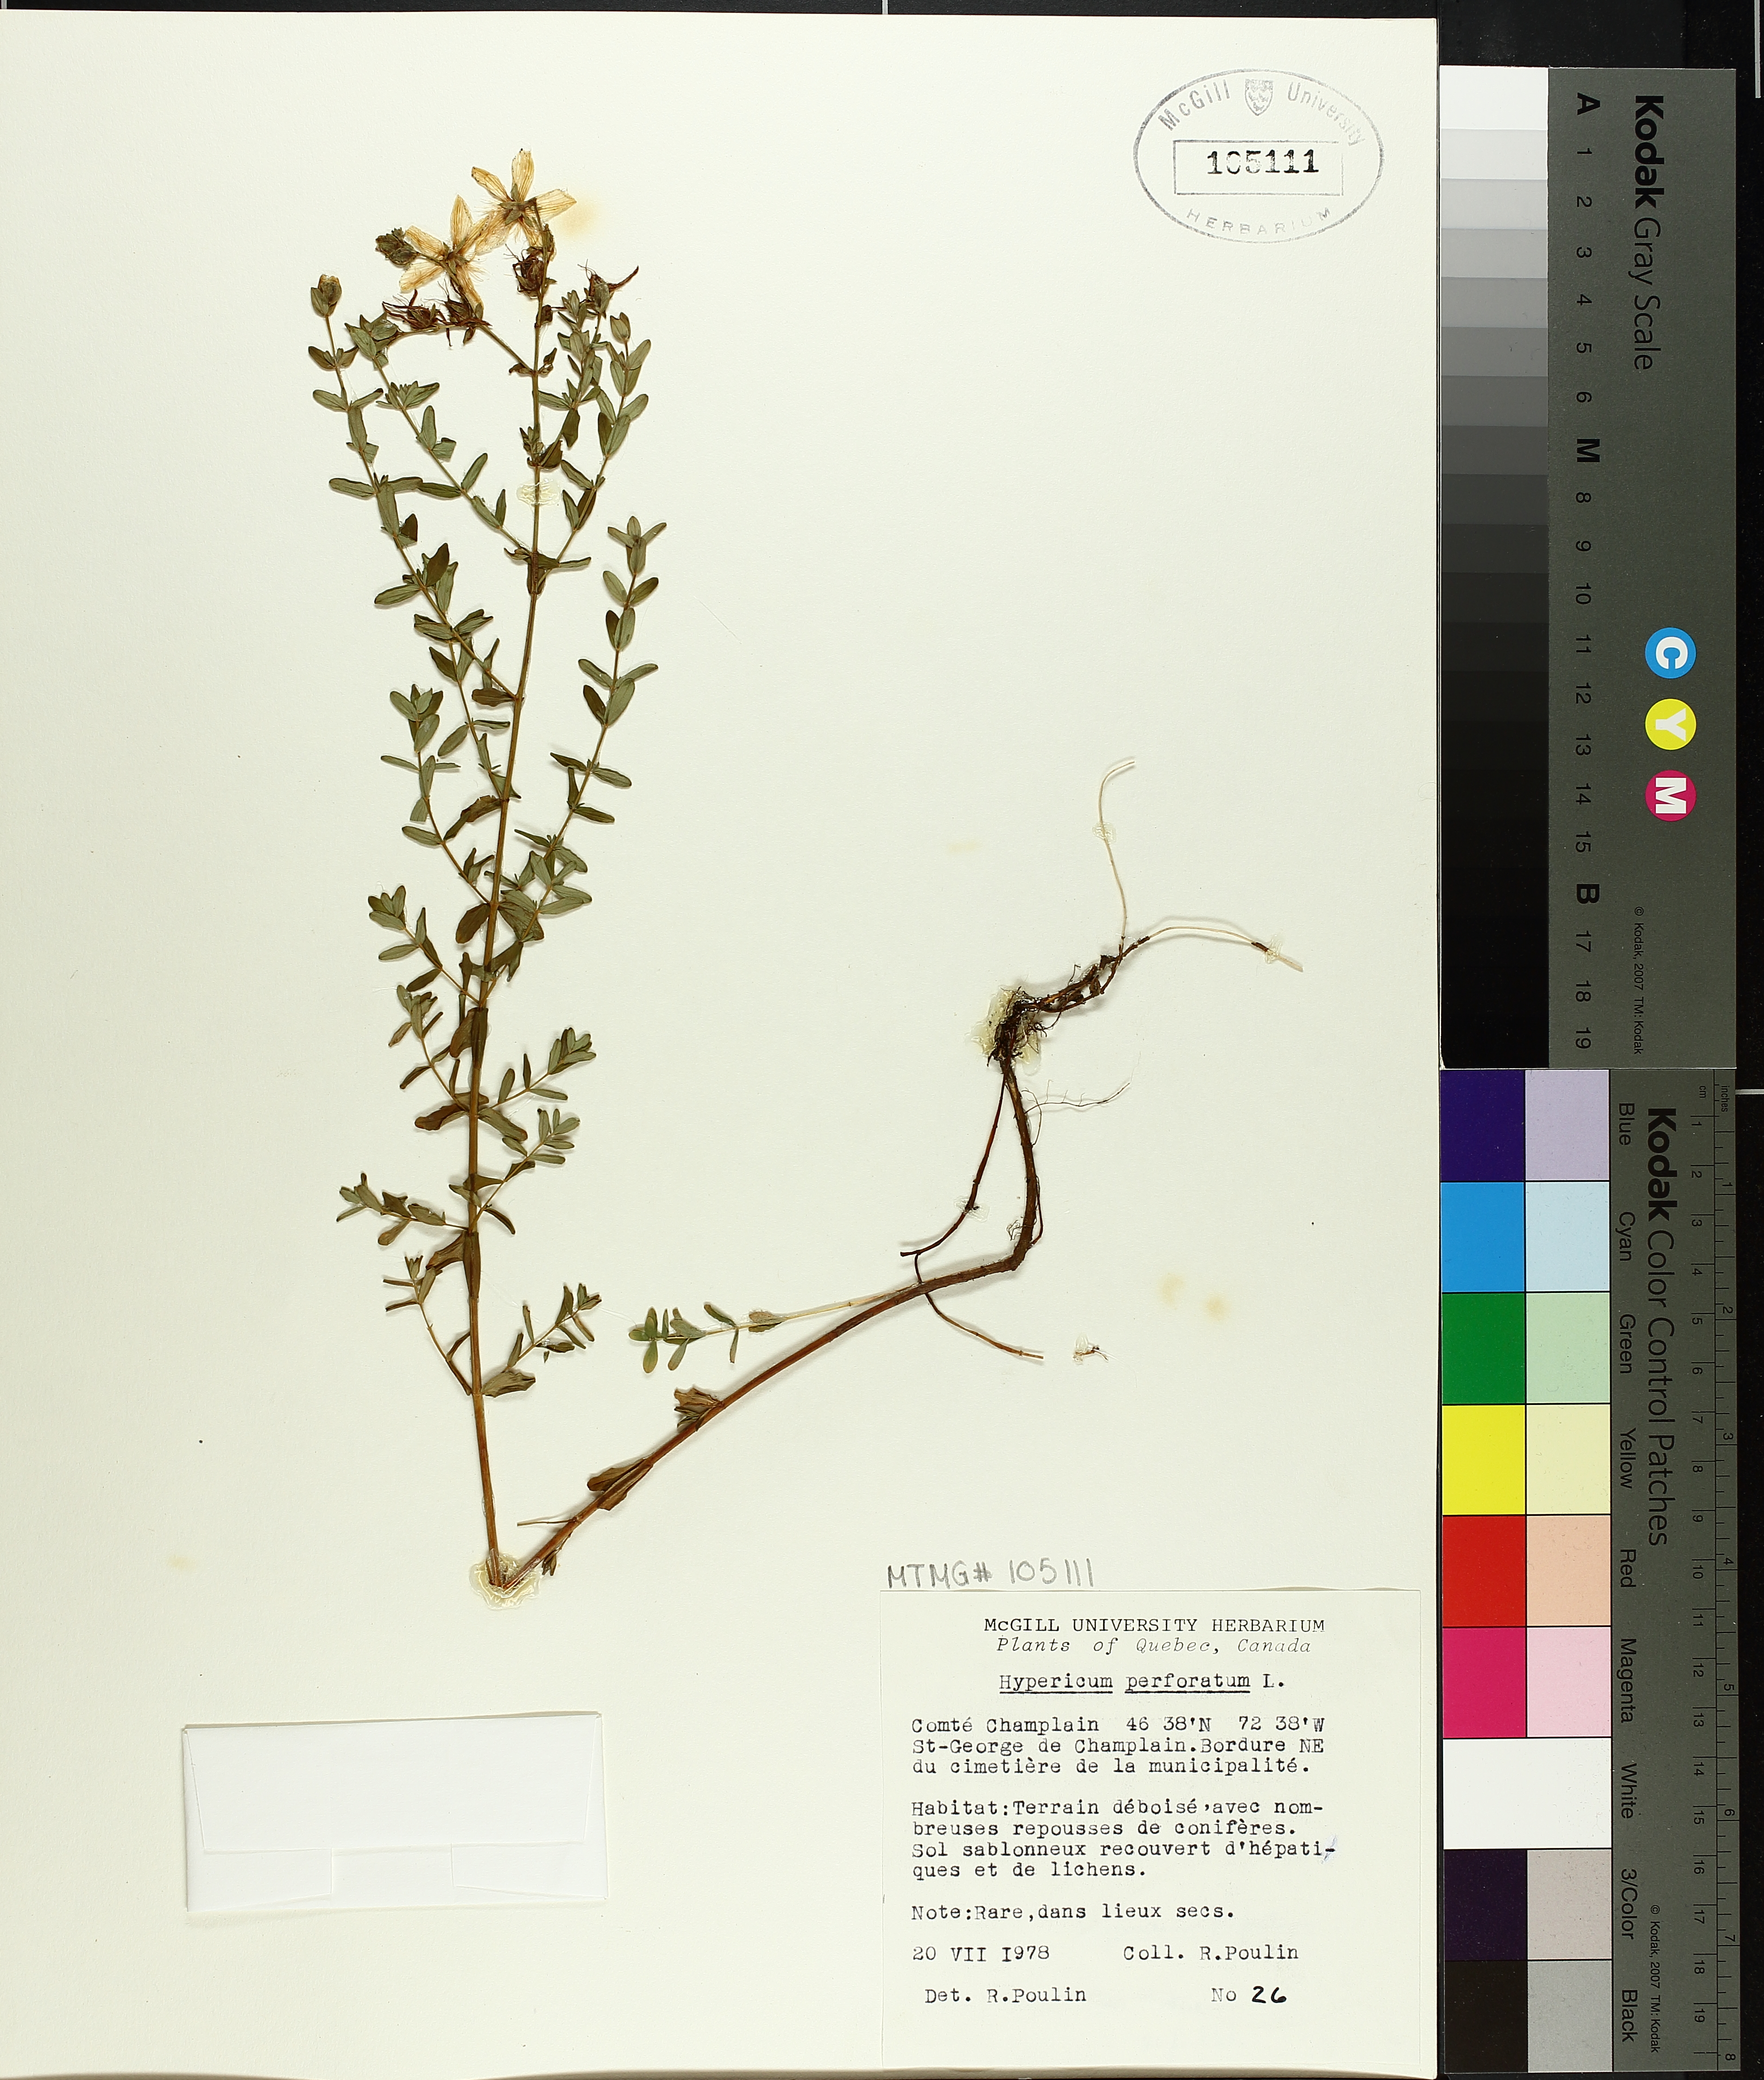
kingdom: Plantae
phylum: Tracheophyta
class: Magnoliopsida
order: Malpighiales
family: Hypericaceae
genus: Hypericum
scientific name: Hypericum perforatum
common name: Common st. johnswort
